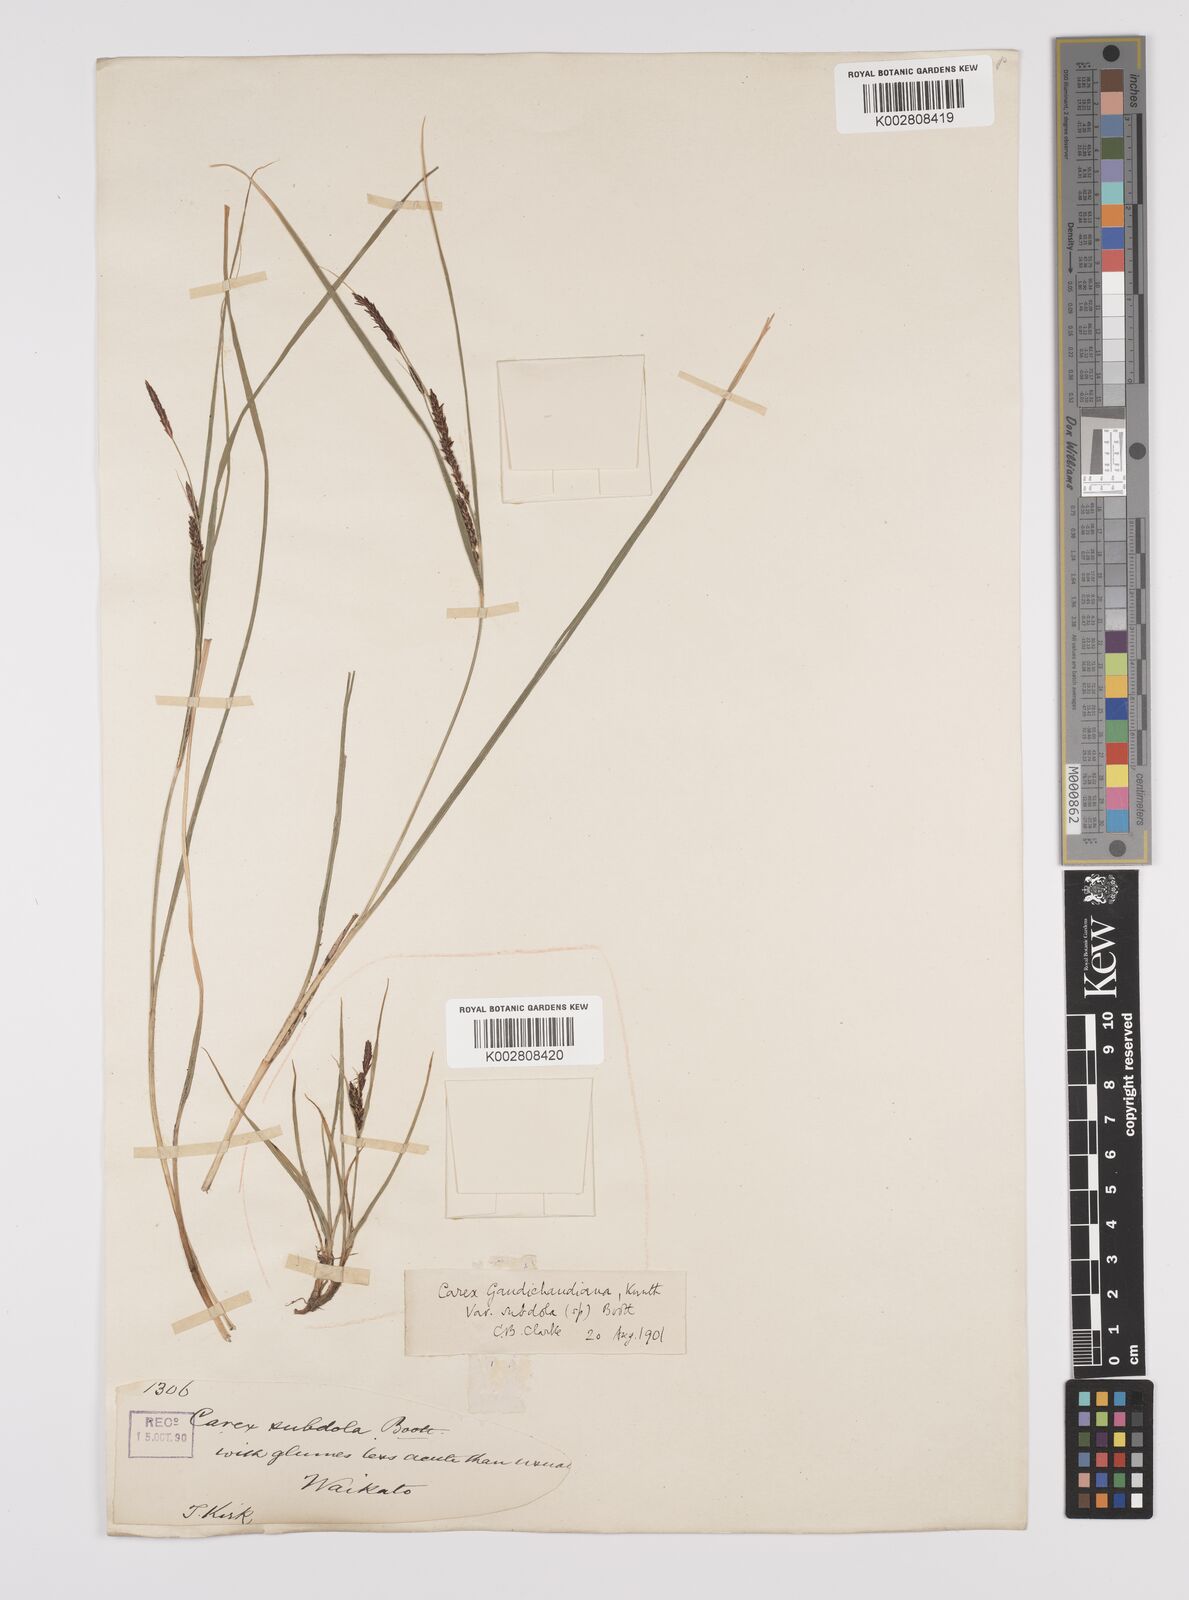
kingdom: Plantae
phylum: Tracheophyta
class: Liliopsida
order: Poales
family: Cyperaceae
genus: Carex
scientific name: Carex subdola
